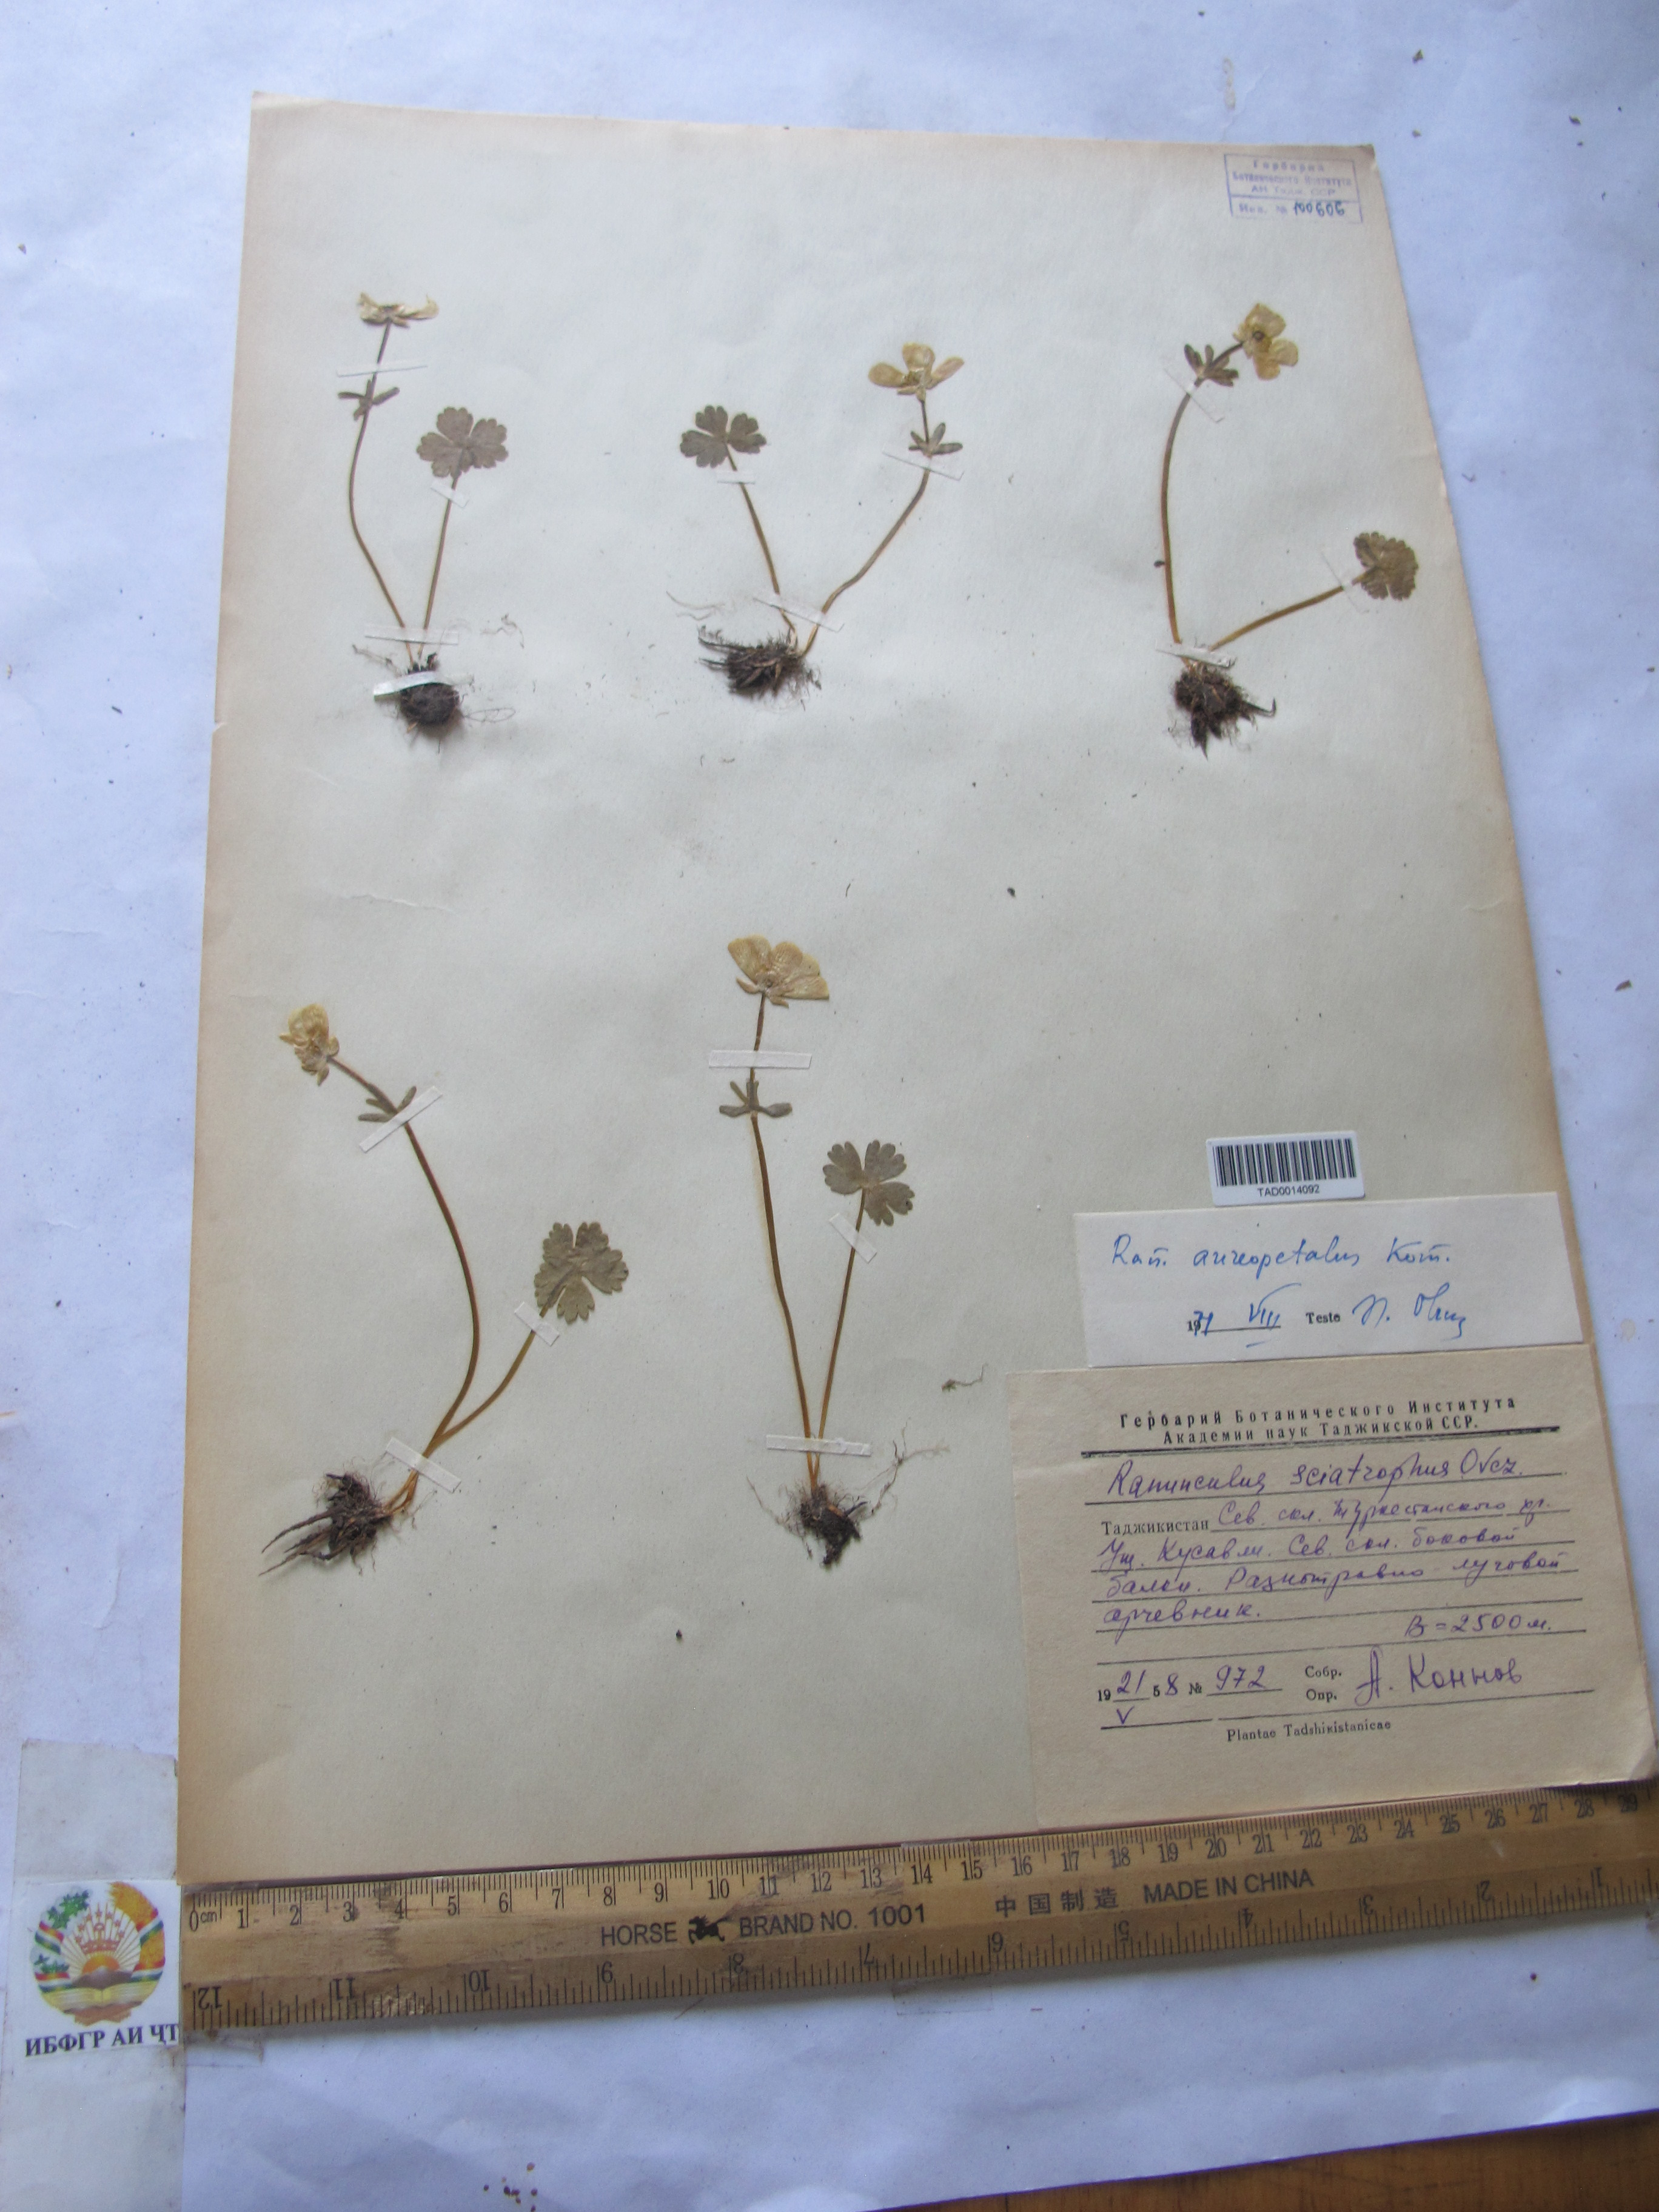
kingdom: Plantae
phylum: Tracheophyta
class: Magnoliopsida
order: Ranunculales
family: Ranunculaceae
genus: Ranunculus
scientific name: Ranunculus aureopetalus
